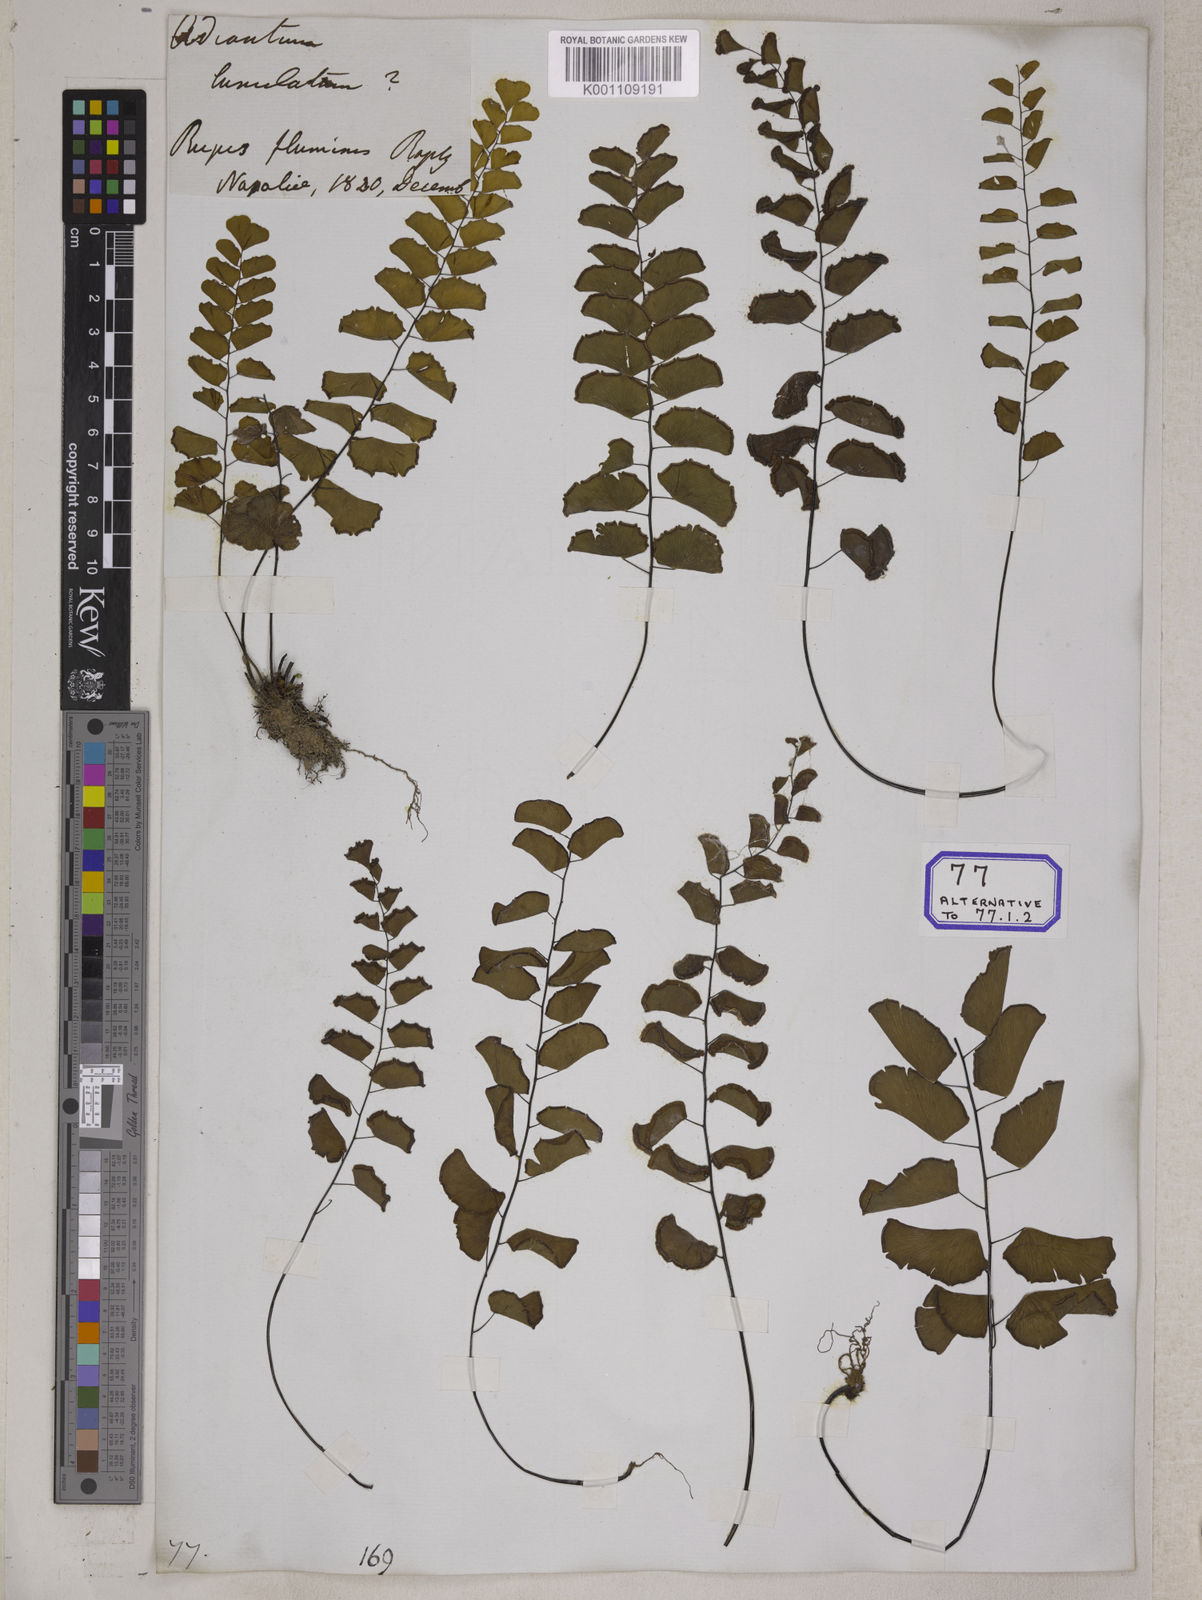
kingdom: Plantae
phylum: Tracheophyta
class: Polypodiopsida
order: Polypodiales
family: Pteridaceae
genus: Adiantum
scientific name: Adiantum philippense
